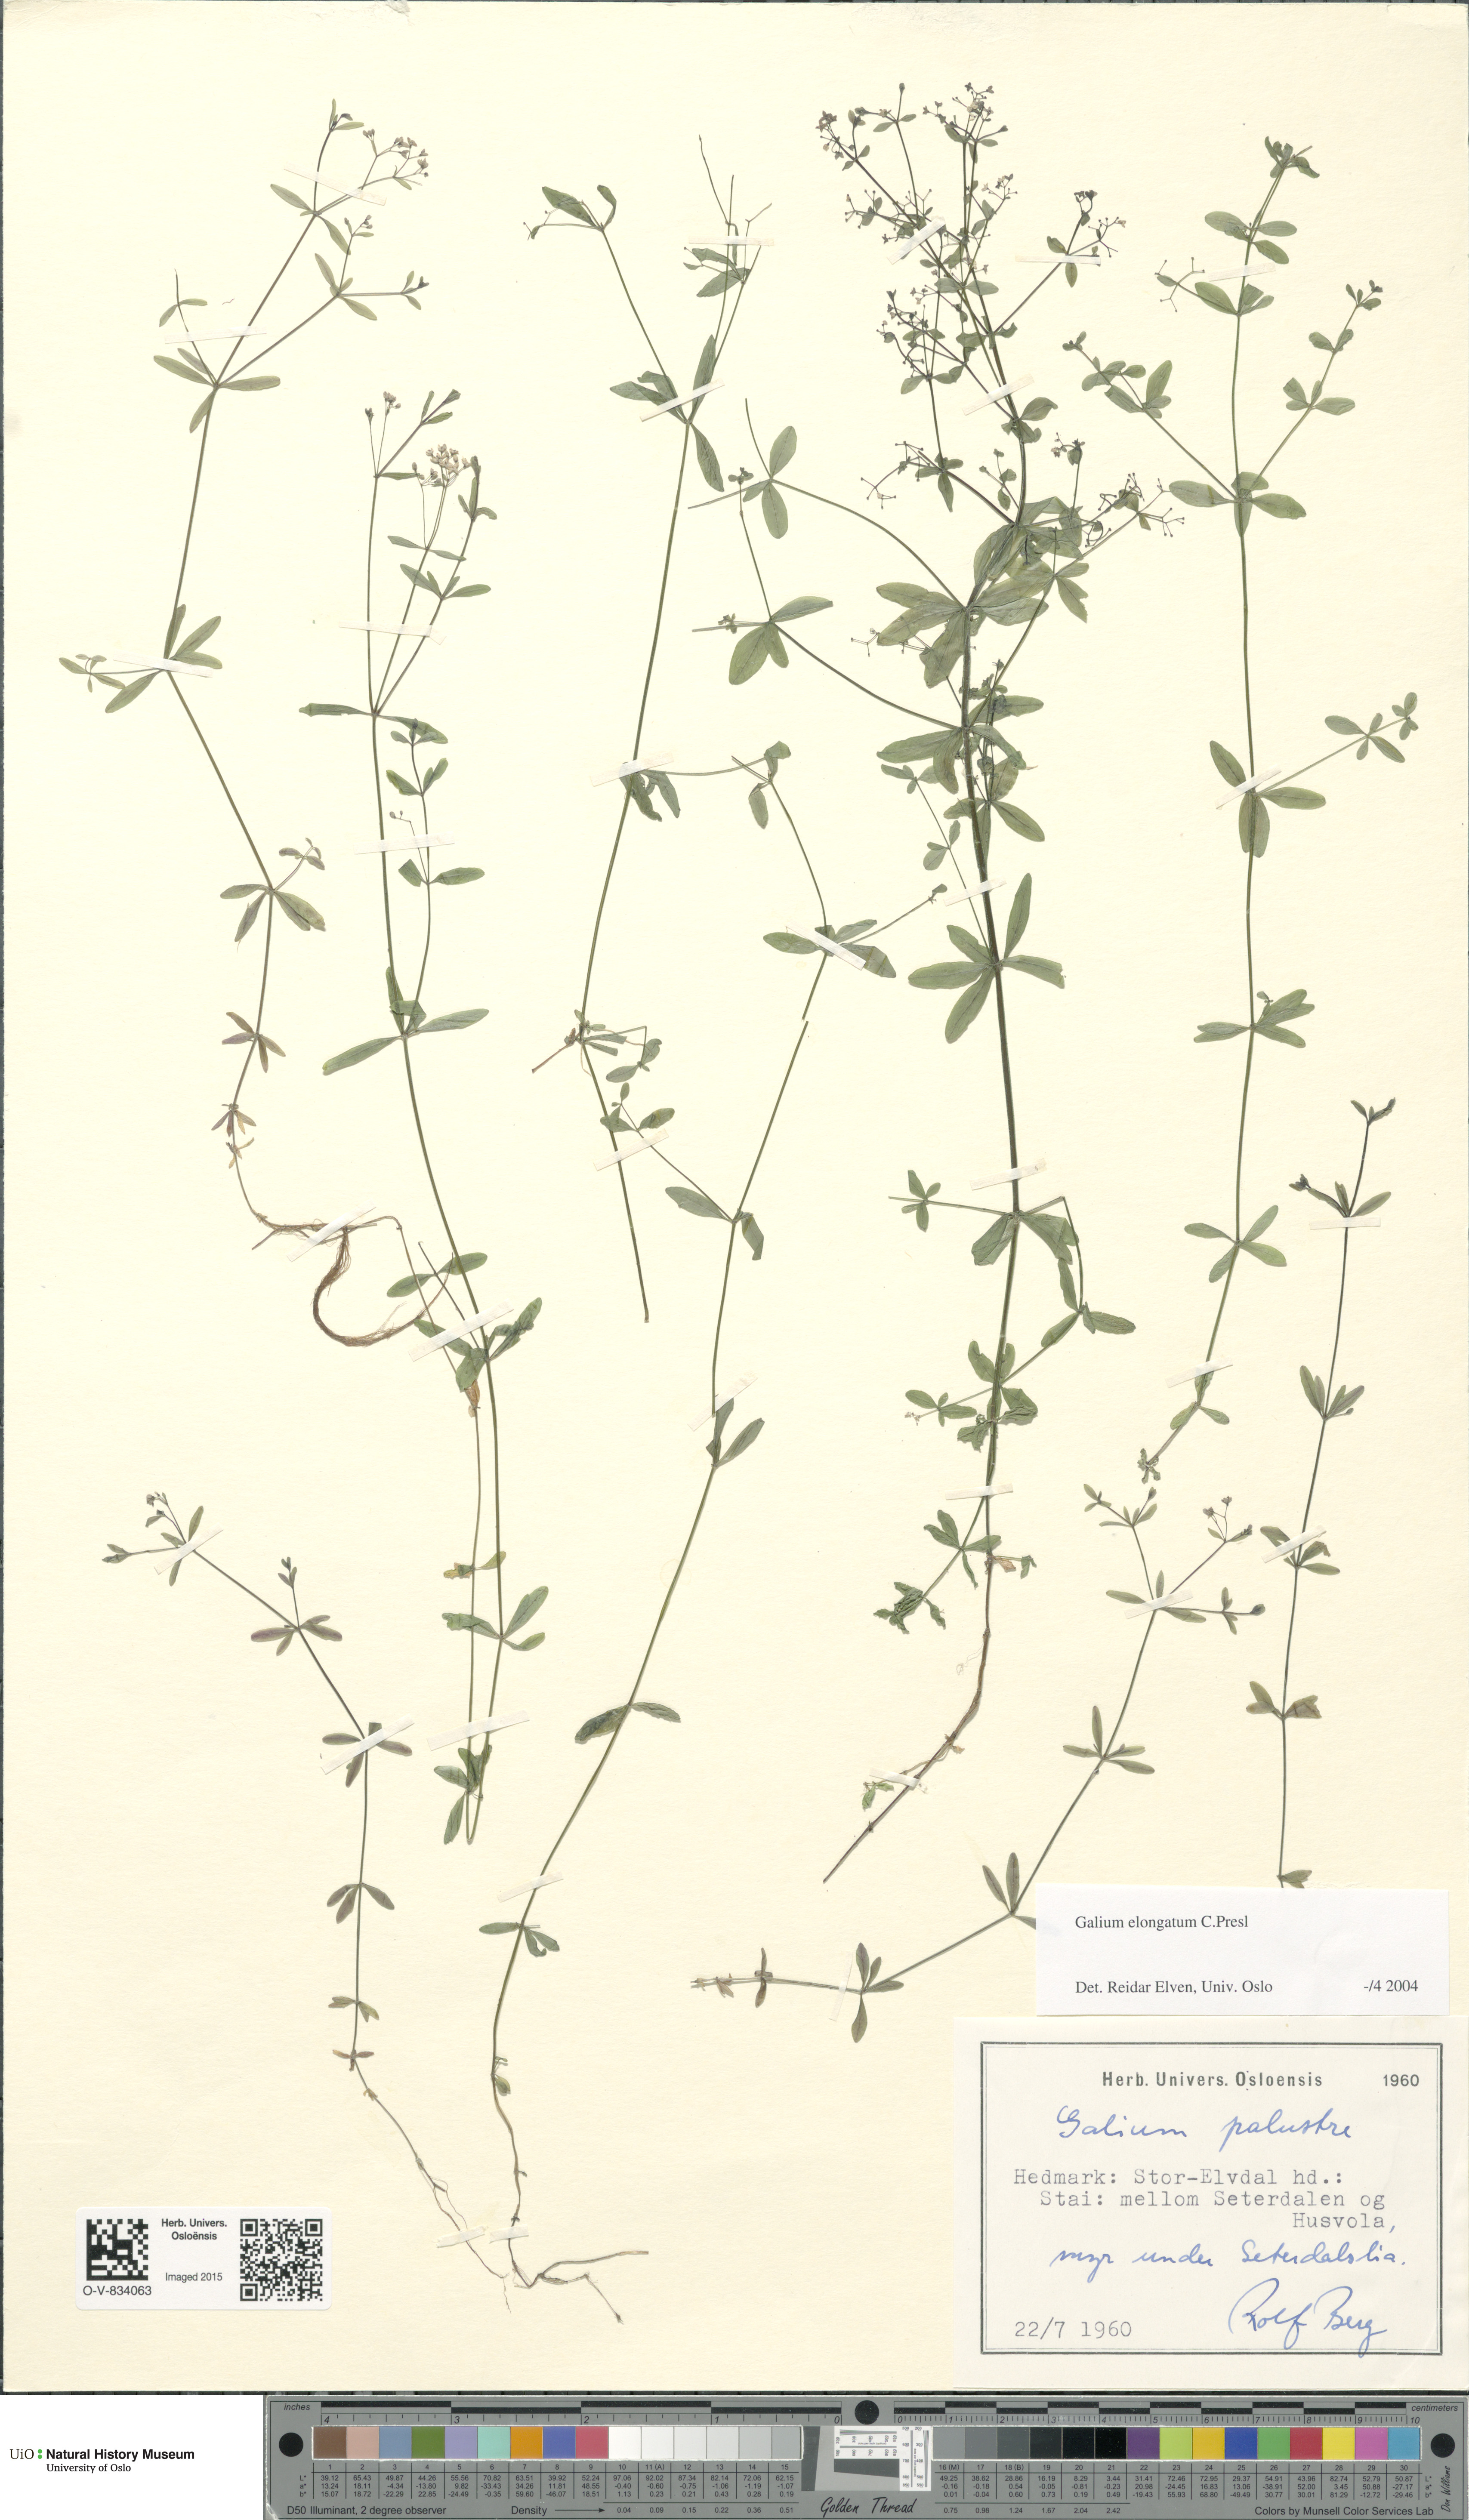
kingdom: Plantae
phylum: Tracheophyta
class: Magnoliopsida
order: Gentianales
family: Rubiaceae
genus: Galium
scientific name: Galium elongatum
